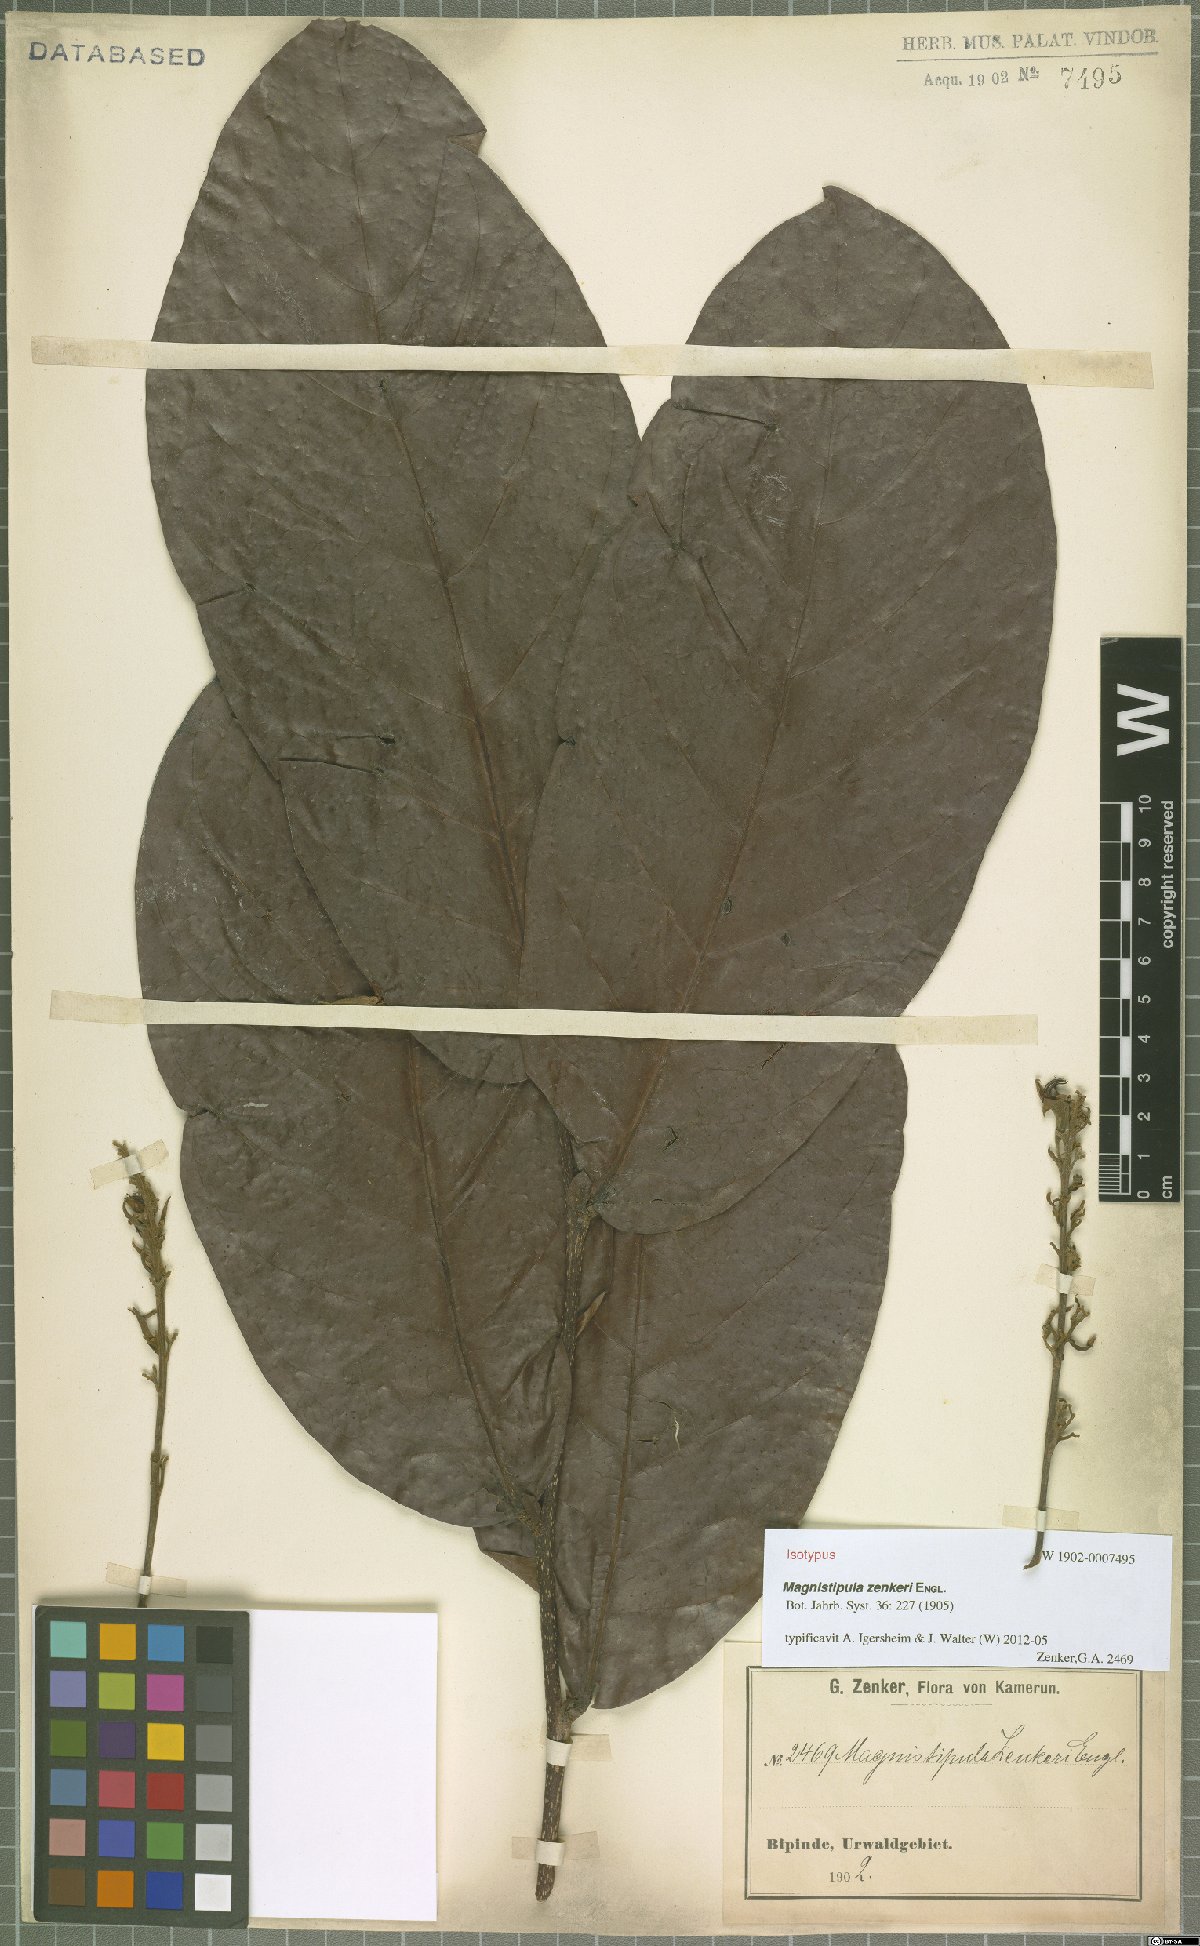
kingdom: Plantae
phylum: Tracheophyta
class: Magnoliopsida
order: Malpighiales
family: Chrysobalanaceae
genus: Magnistipula
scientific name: Magnistipula zenkeri
